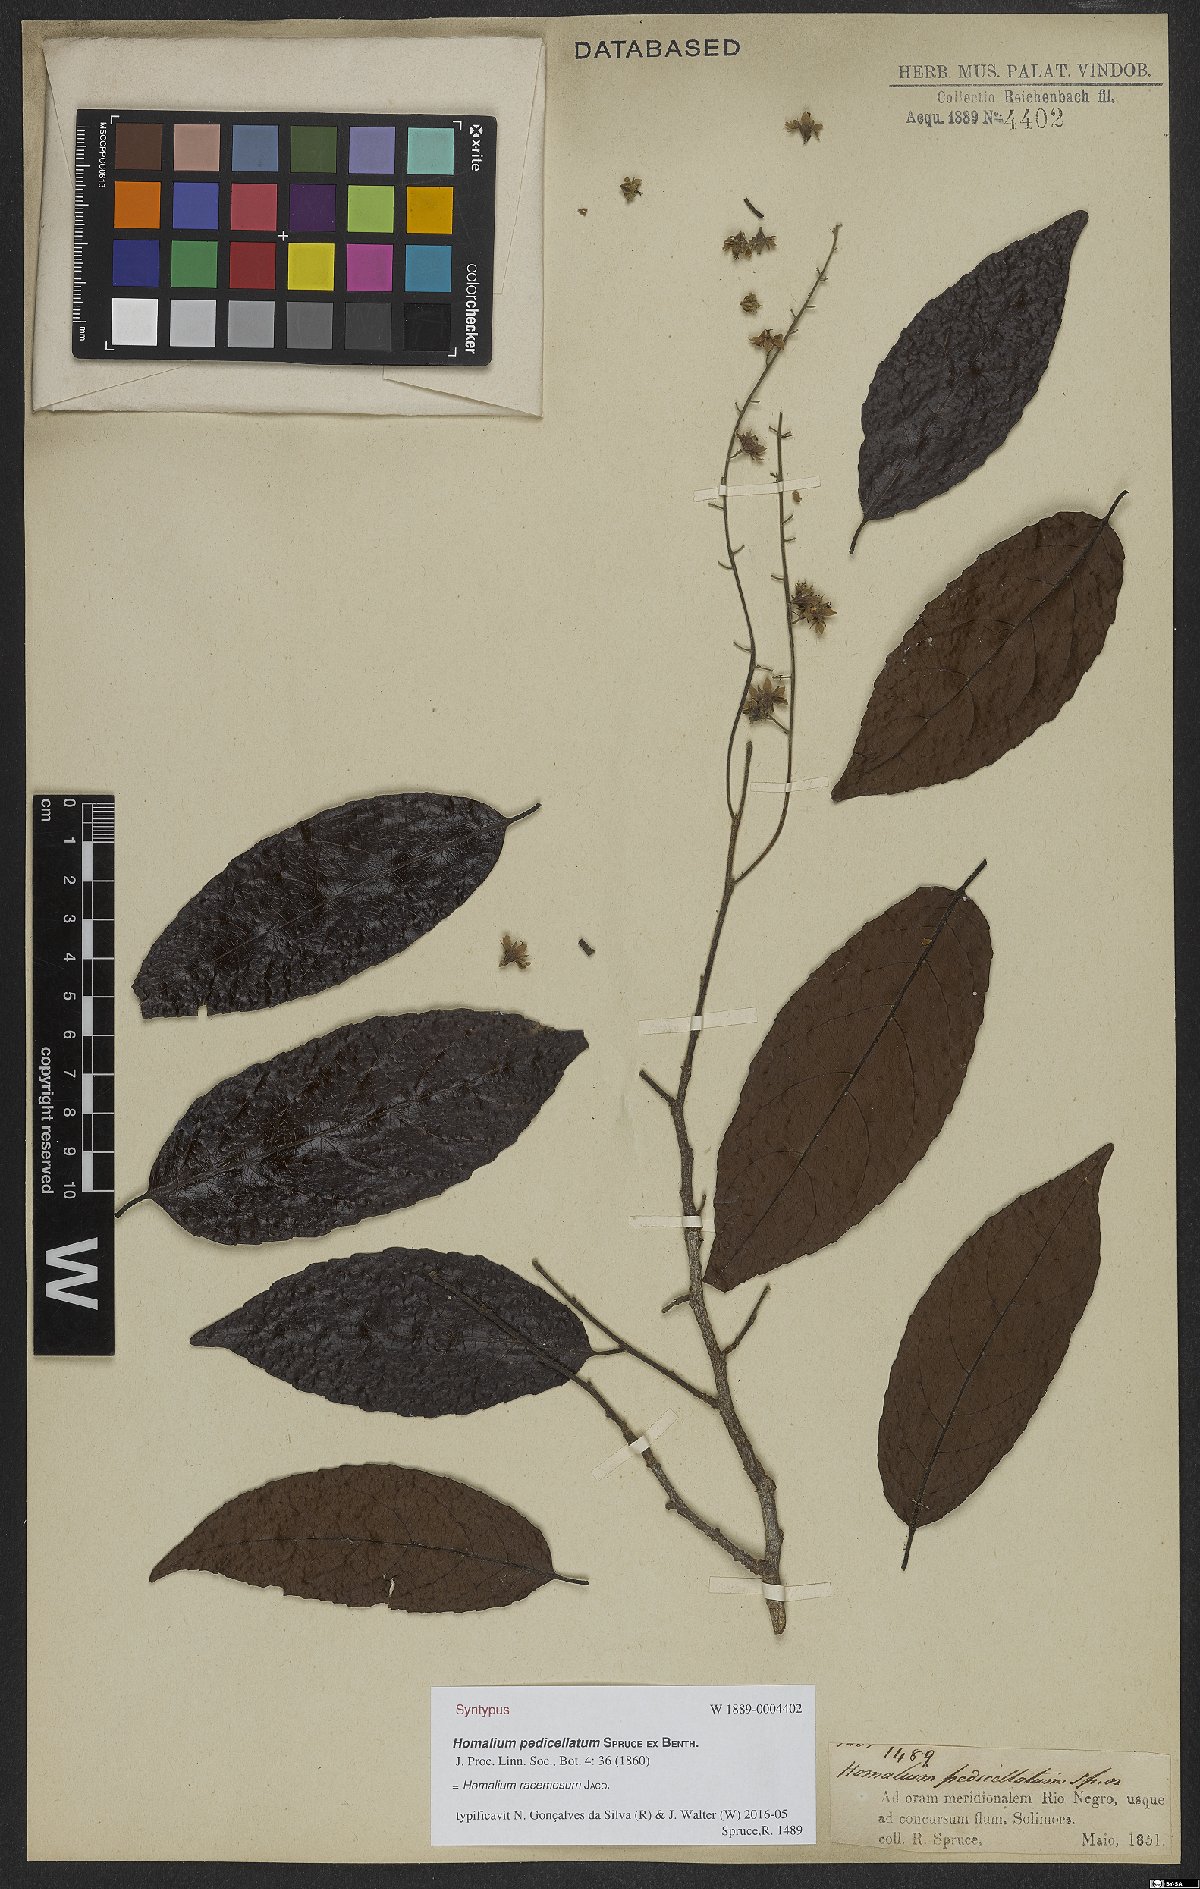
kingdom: Plantae
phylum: Tracheophyta
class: Magnoliopsida
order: Malpighiales
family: Salicaceae
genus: Homalium
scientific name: Homalium racemosum
